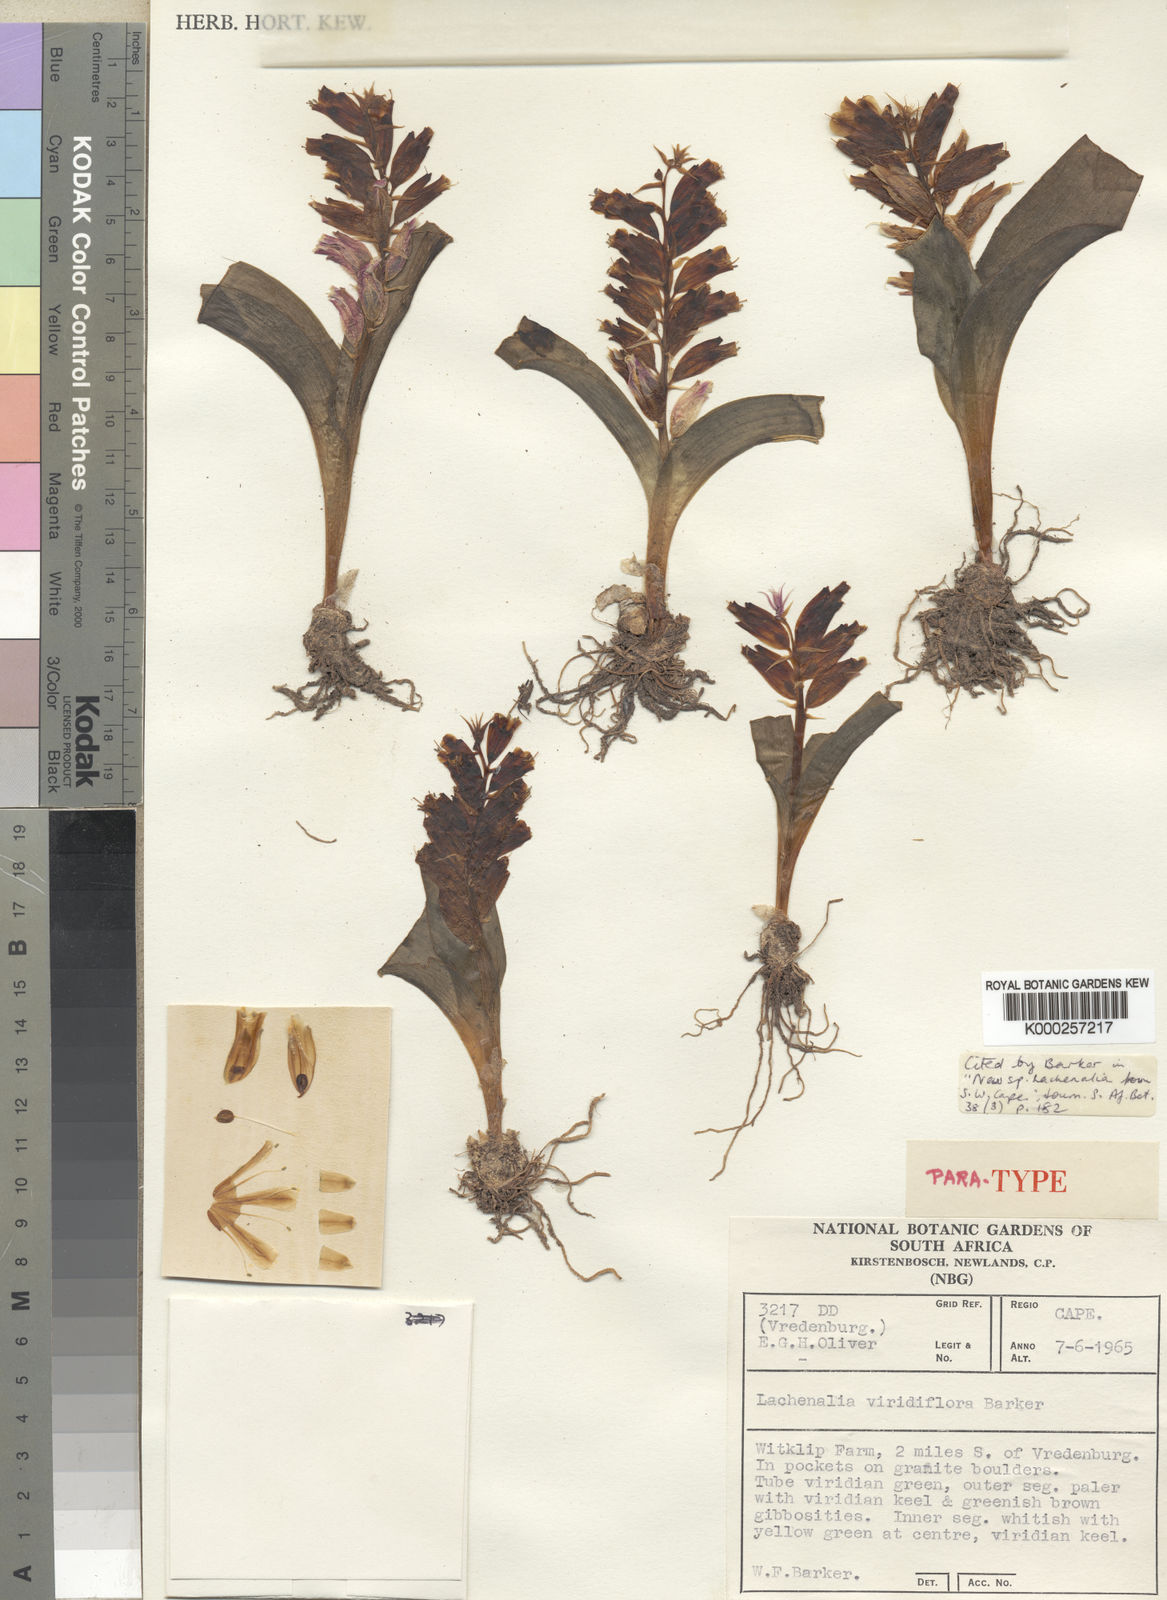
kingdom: Plantae
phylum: Tracheophyta
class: Liliopsida
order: Asparagales
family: Asparagaceae
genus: Lachenalia
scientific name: Lachenalia viridiflora
